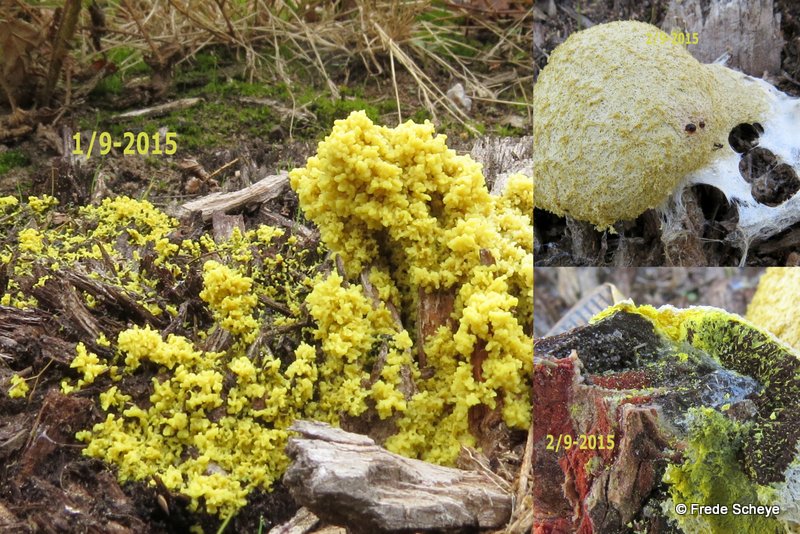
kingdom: Protozoa
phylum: Mycetozoa
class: Myxomycetes
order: Physarales
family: Physaraceae
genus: Fuligo
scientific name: Fuligo septica
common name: gul troldsmør
